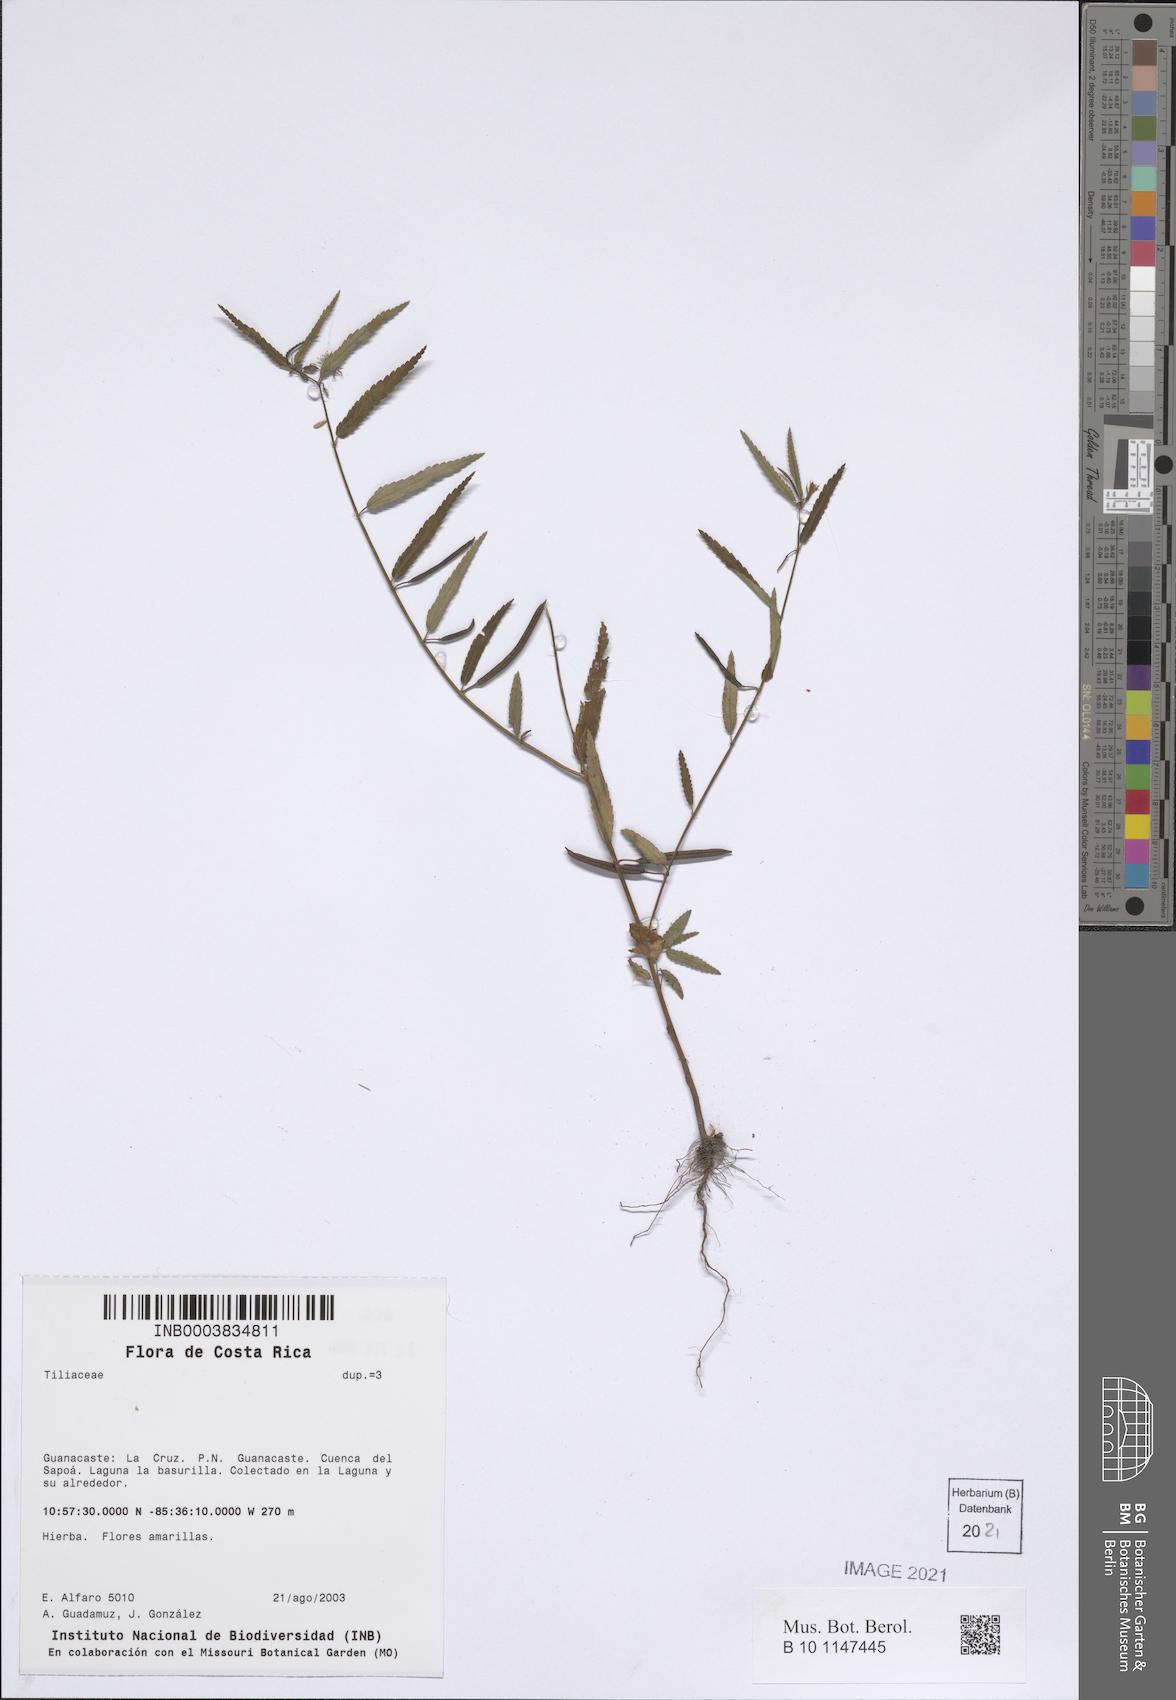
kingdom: Plantae
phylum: Tracheophyta
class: Magnoliopsida
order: Malvales
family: Tiliaceae
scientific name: Tiliaceae
